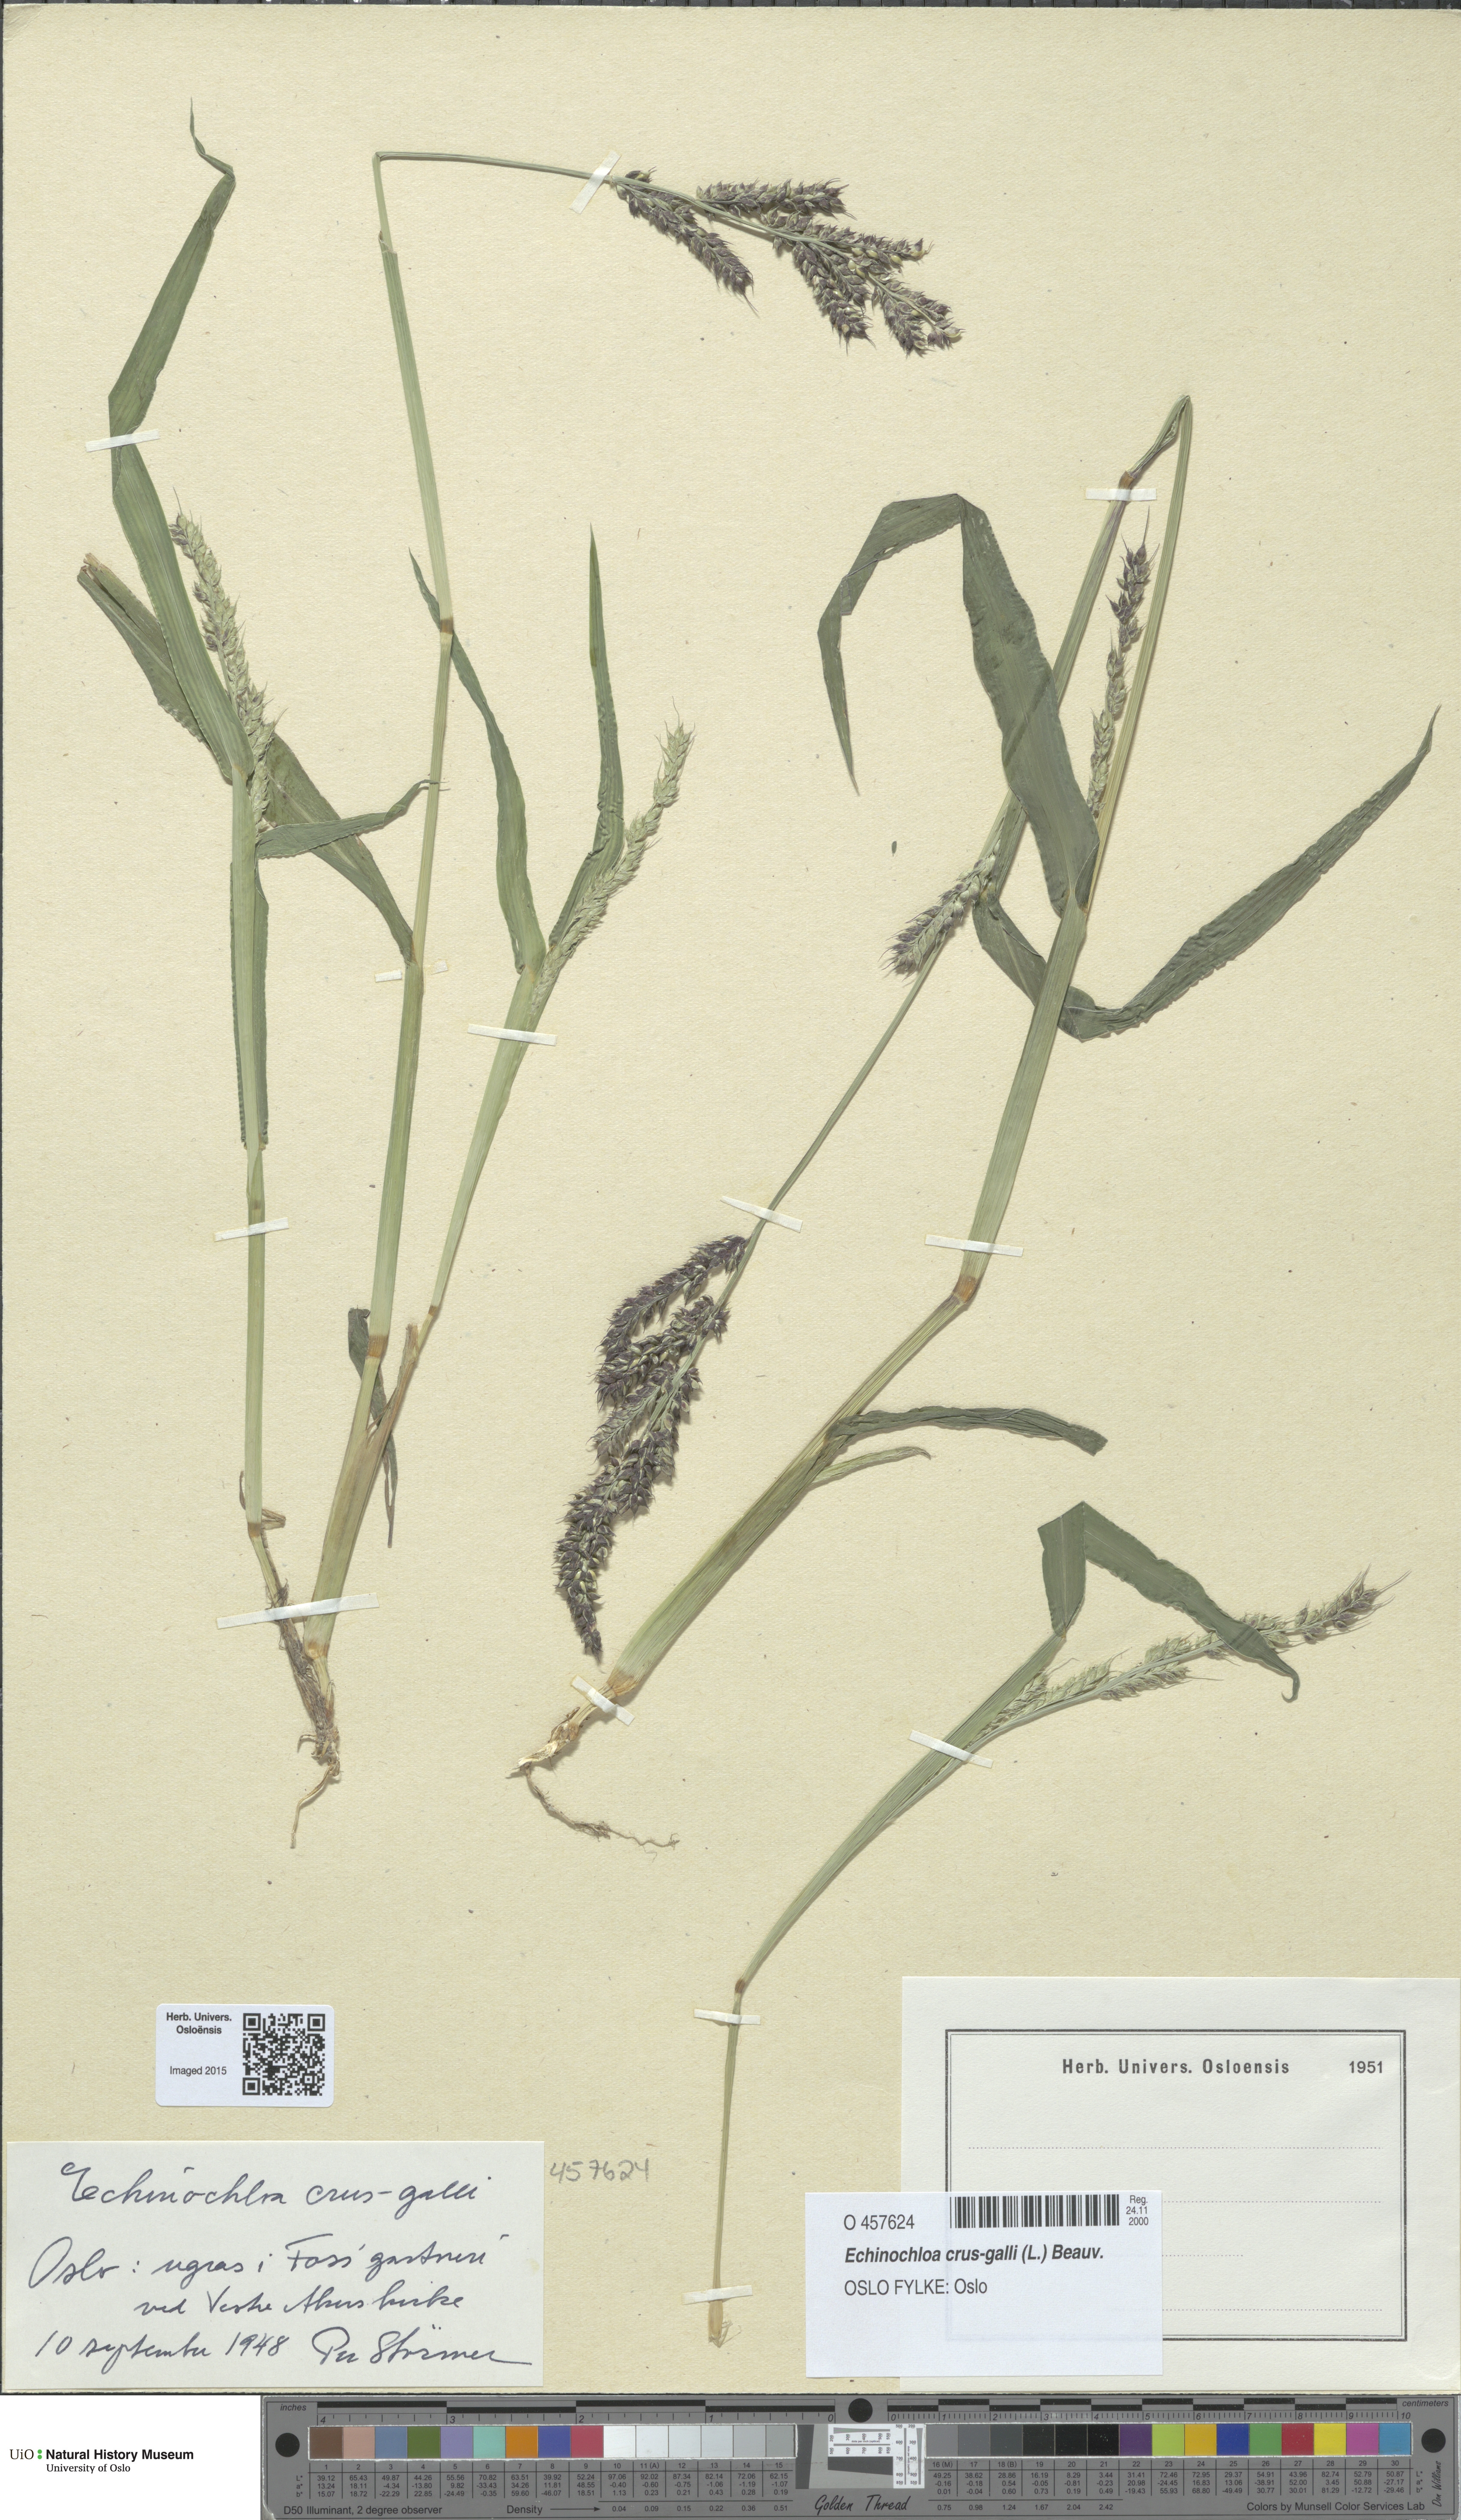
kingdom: Plantae
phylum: Tracheophyta
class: Liliopsida
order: Poales
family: Poaceae
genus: Echinochloa
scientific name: Echinochloa crus-galli
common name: Cockspur
